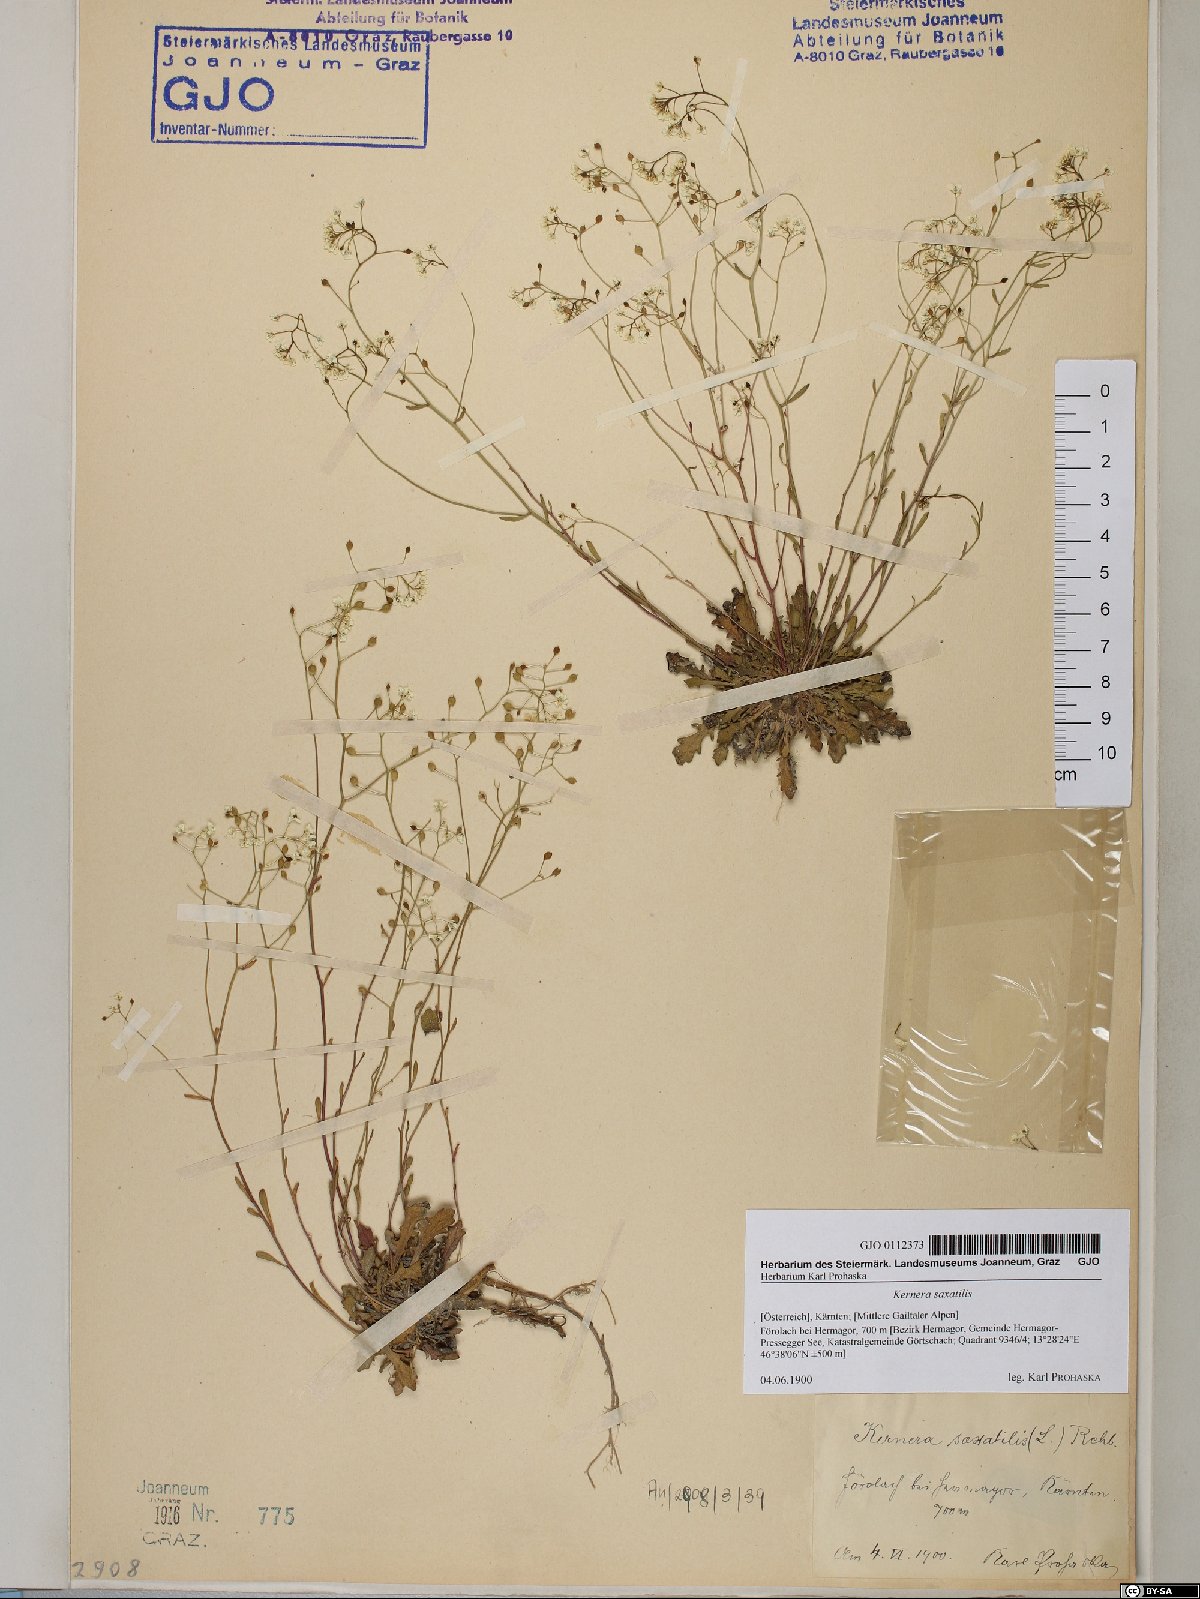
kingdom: Plantae
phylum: Tracheophyta
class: Magnoliopsida
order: Brassicales
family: Brassicaceae
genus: Kernera
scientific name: Kernera saxatilis
